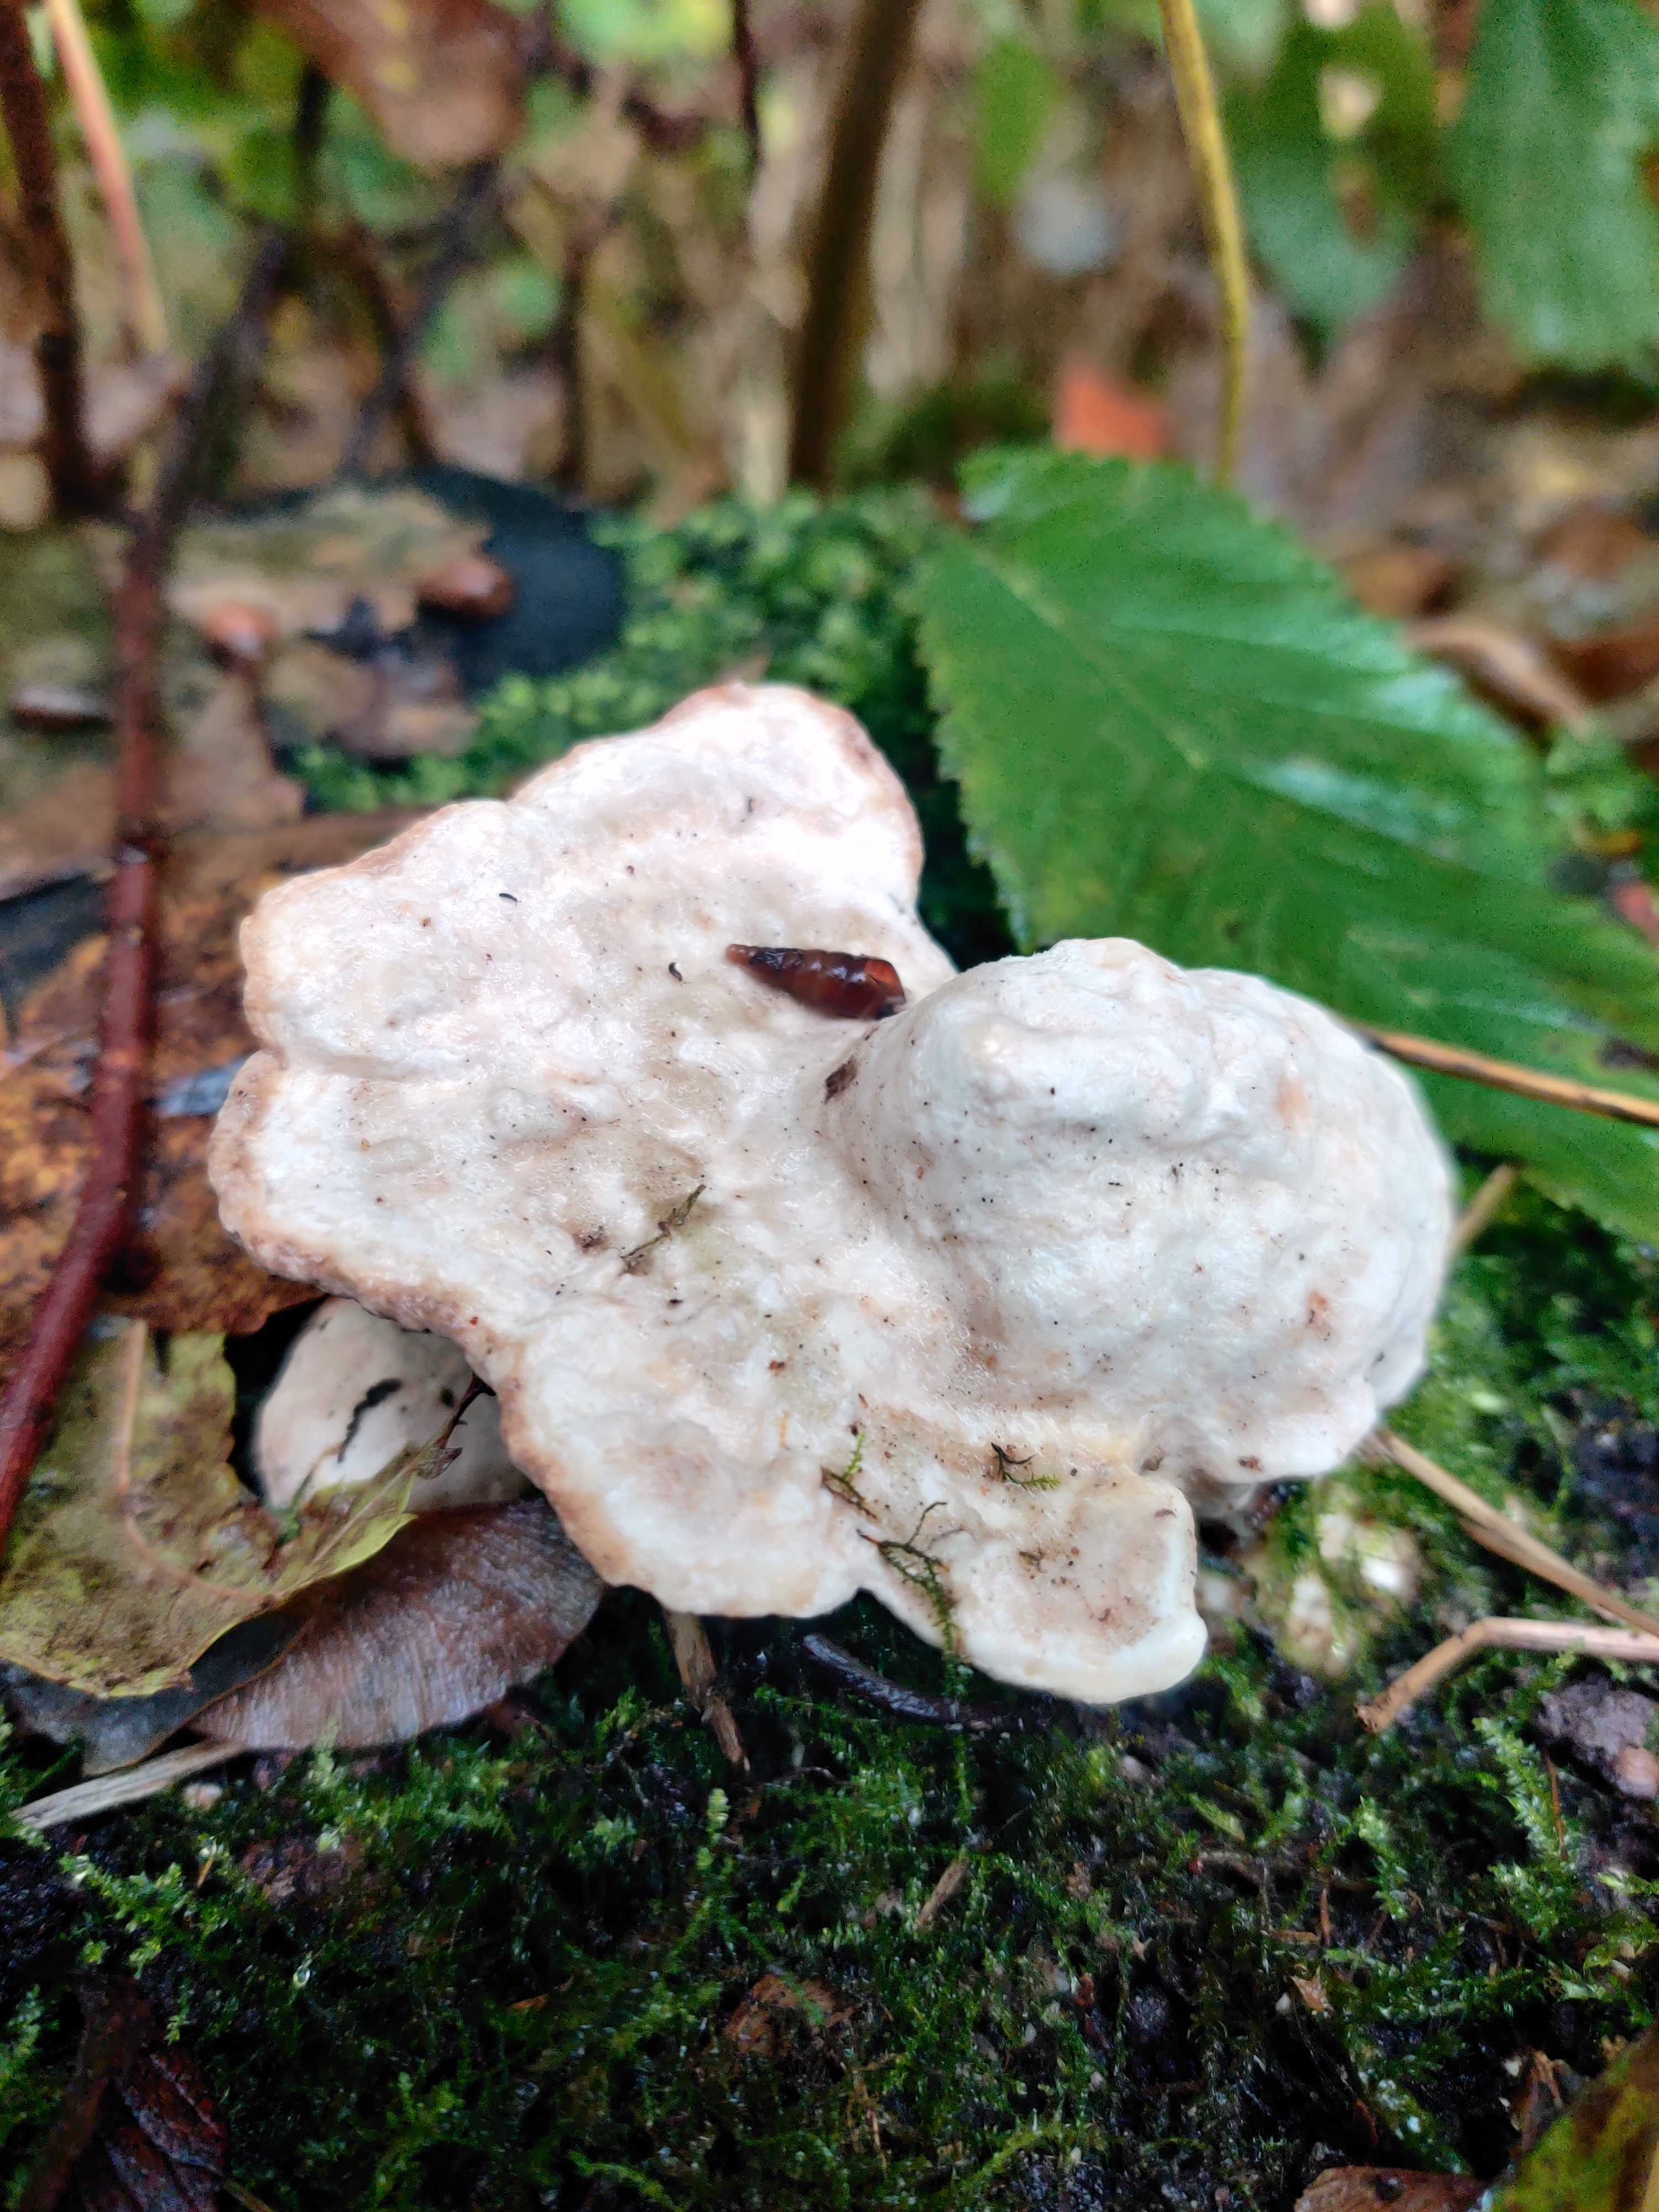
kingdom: Fungi
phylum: Basidiomycota
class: Agaricomycetes
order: Polyporales
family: Polyporaceae
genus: Trametes
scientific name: Trametes gibbosa
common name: puklet læderporesvamp
